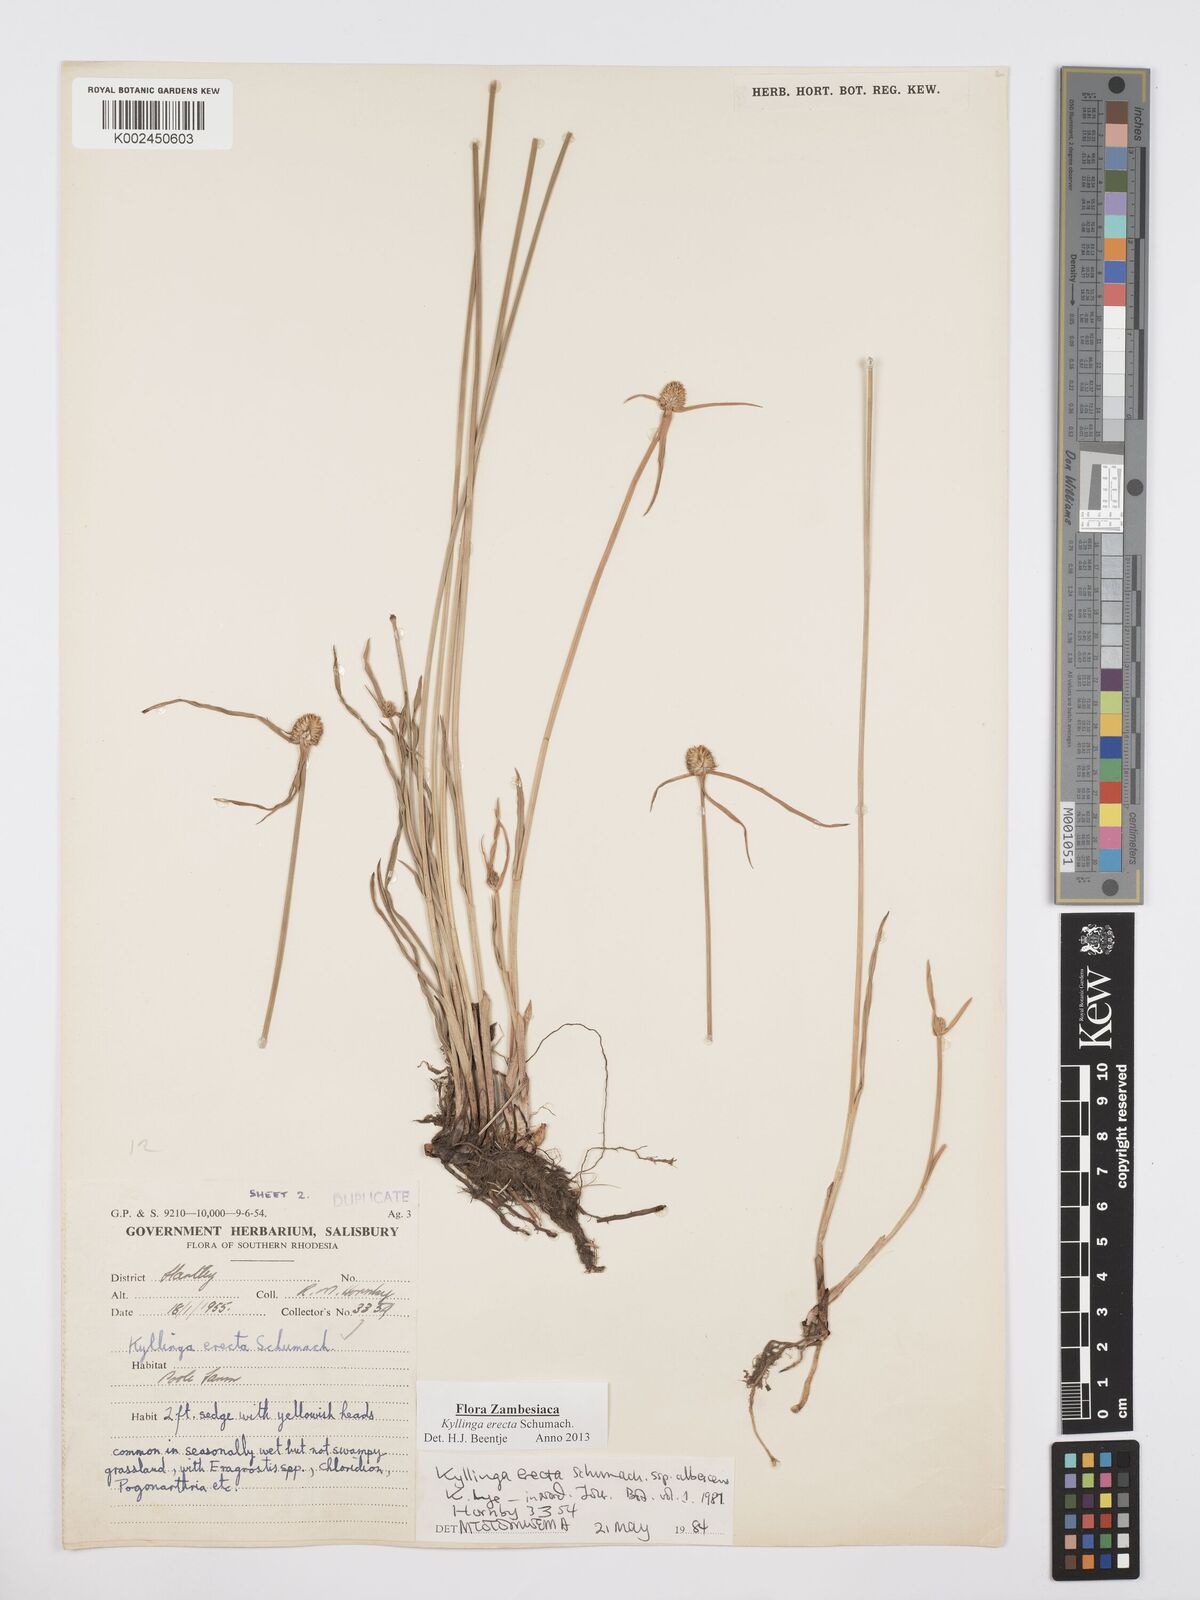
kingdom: Plantae
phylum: Tracheophyta
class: Liliopsida
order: Poales
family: Cyperaceae
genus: Cyperus
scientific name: Cyperus erectus
